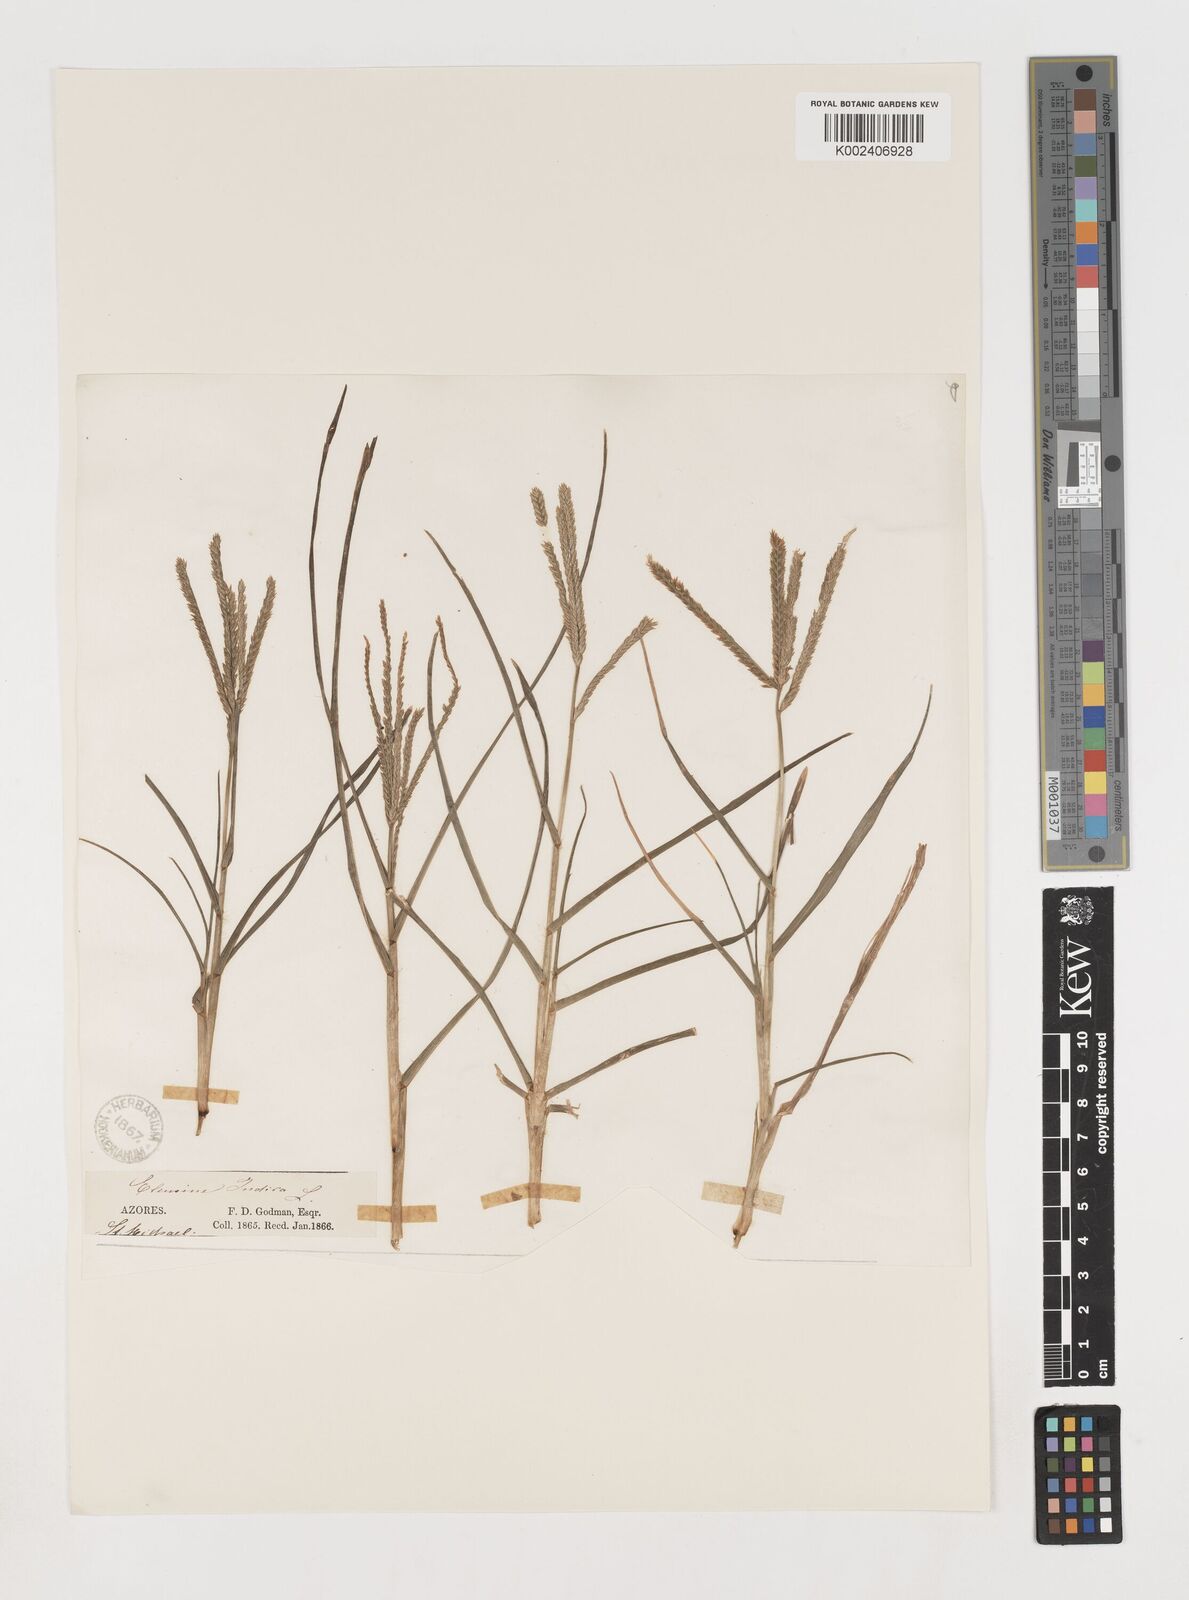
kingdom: Plantae
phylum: Tracheophyta
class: Liliopsida
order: Poales
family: Poaceae
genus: Eleusine
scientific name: Eleusine indica
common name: Yard-grass
